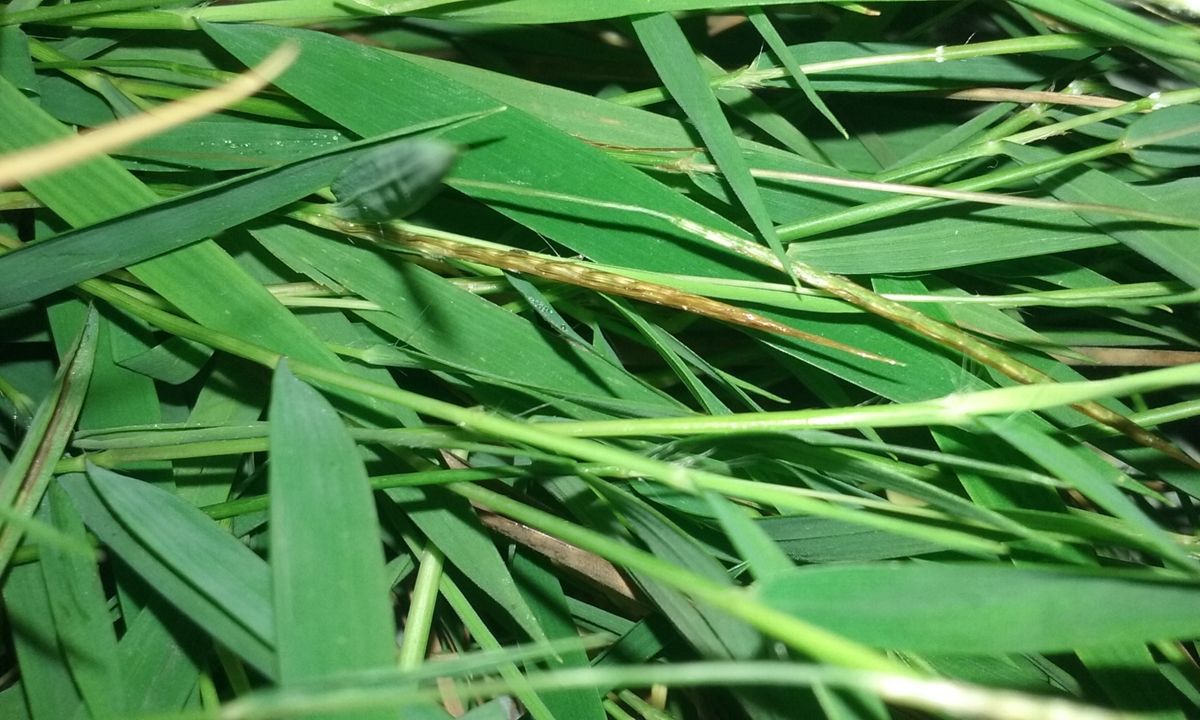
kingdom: Plantae
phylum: Tracheophyta
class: Liliopsida
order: Poales
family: Poaceae
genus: Pogonatherum
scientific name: Pogonatherum paniceum
